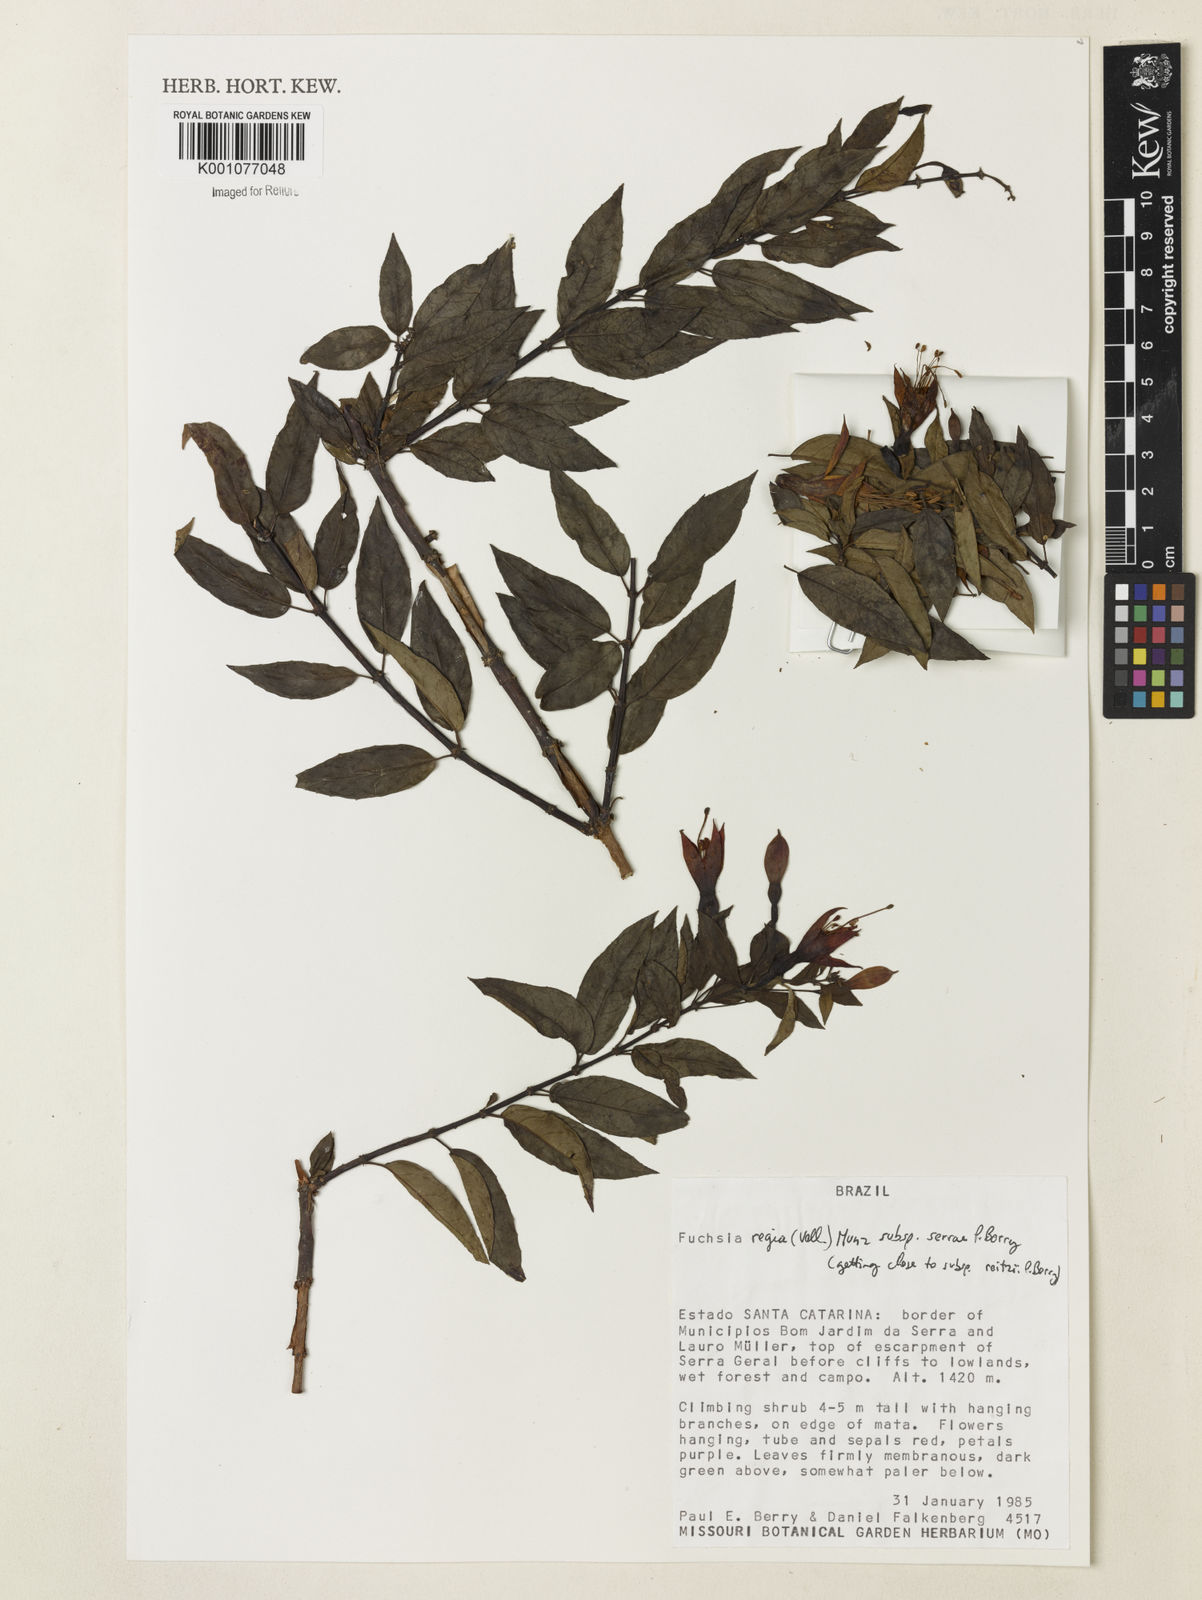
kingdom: Plantae
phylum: Tracheophyta
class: Magnoliopsida
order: Myrtales
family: Onagraceae
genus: Fuchsia
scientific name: Fuchsia regia
